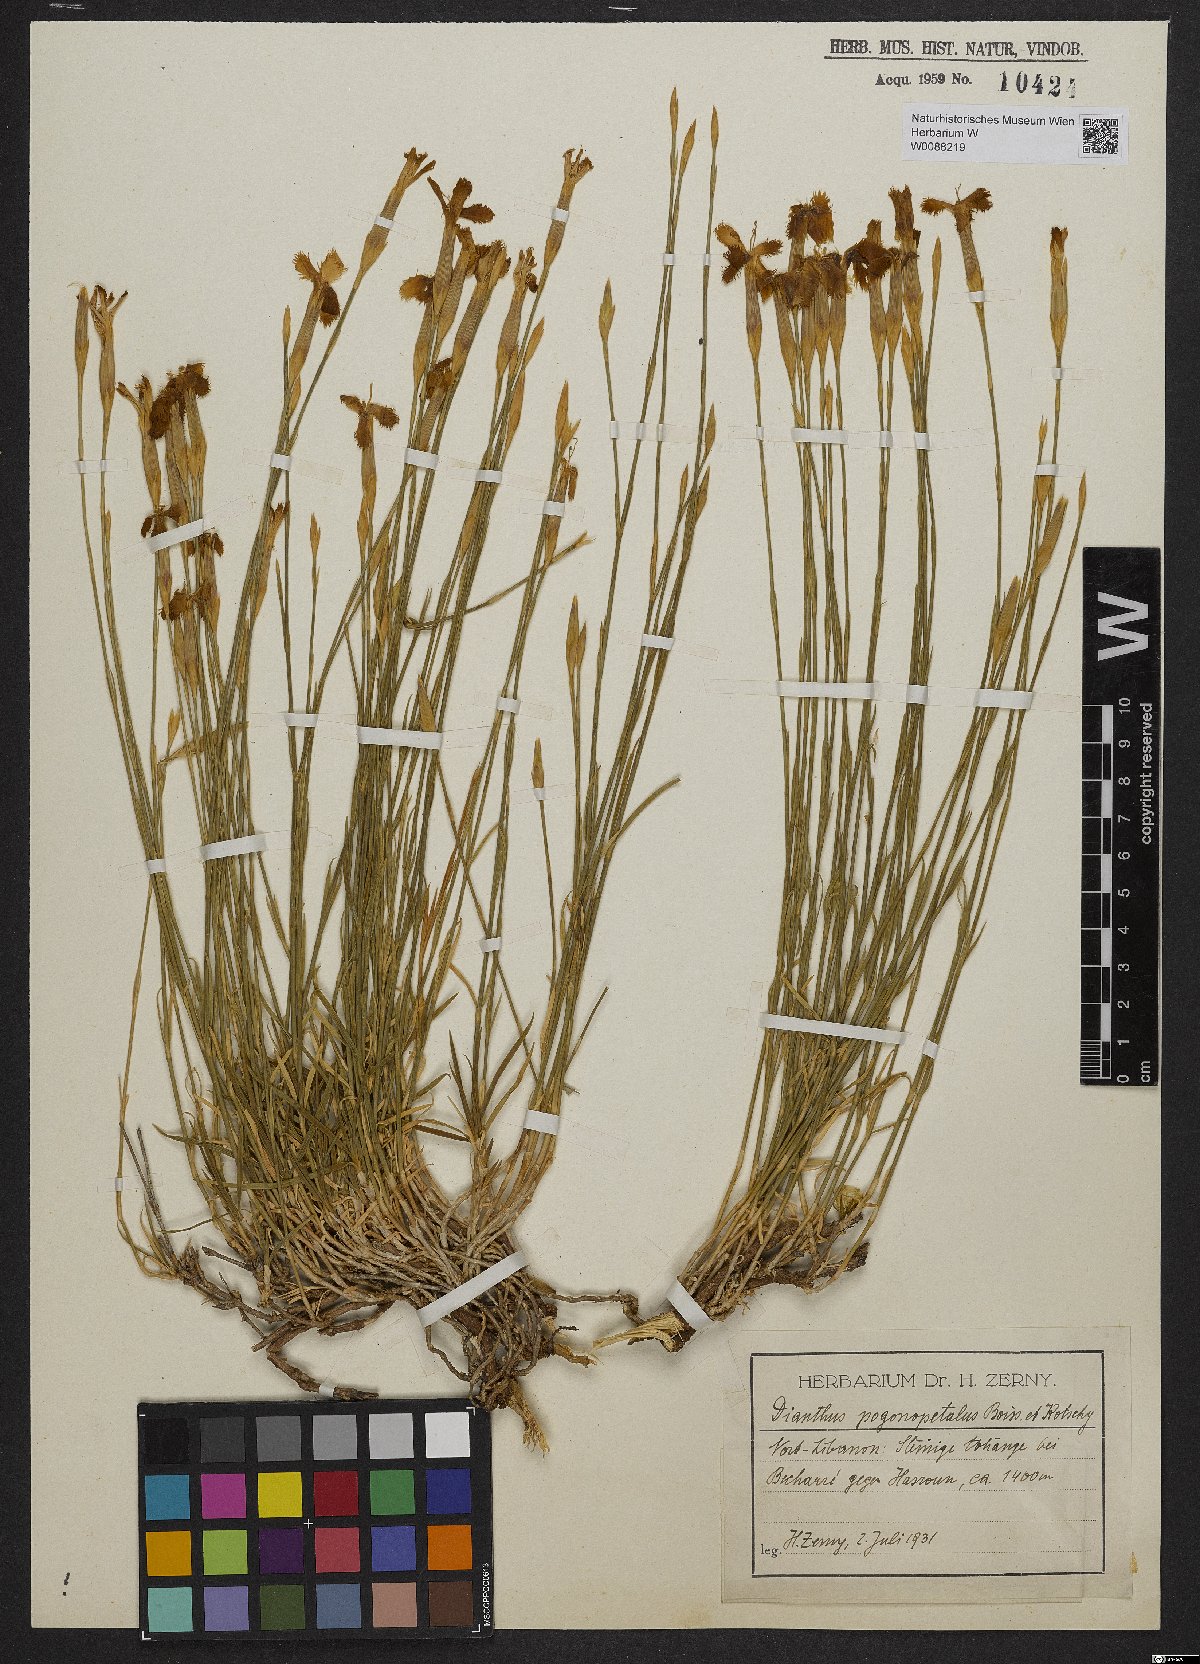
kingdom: Plantae
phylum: Tracheophyta
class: Magnoliopsida
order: Caryophyllales
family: Caryophyllaceae
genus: Dianthus
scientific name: Dianthus orientalis
